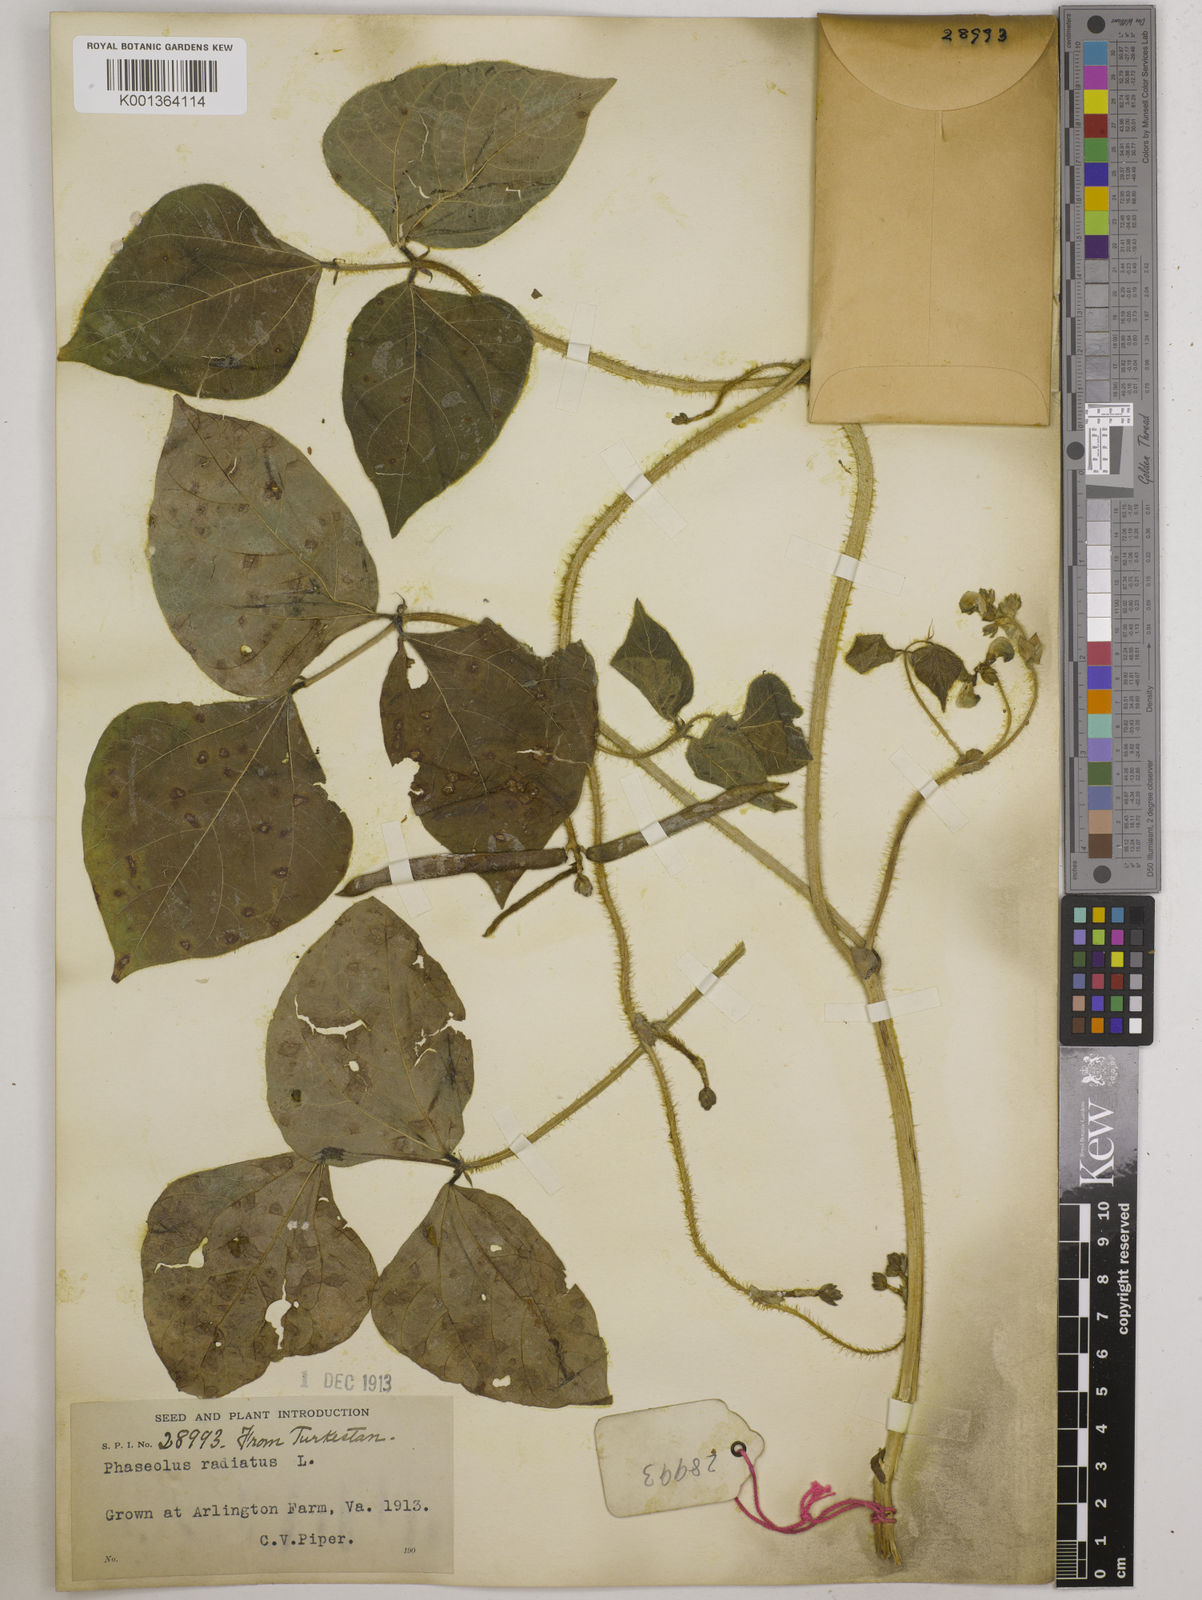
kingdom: Plantae
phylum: Tracheophyta
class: Magnoliopsida
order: Fabales
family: Fabaceae
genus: Vigna
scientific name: Vigna radiata
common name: Mung-bean
